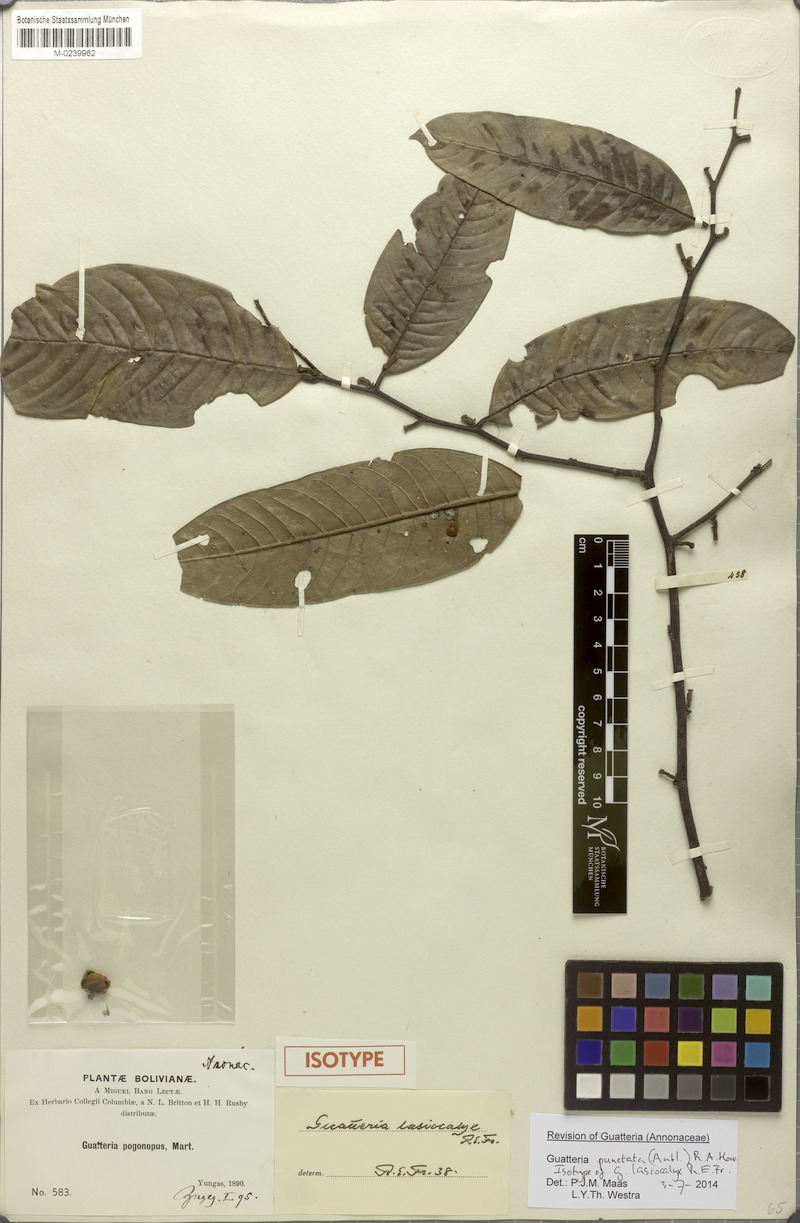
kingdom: Plantae
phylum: Tracheophyta
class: Magnoliopsida
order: Magnoliales
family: Annonaceae
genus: Guatteria
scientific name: Guatteria punctata
